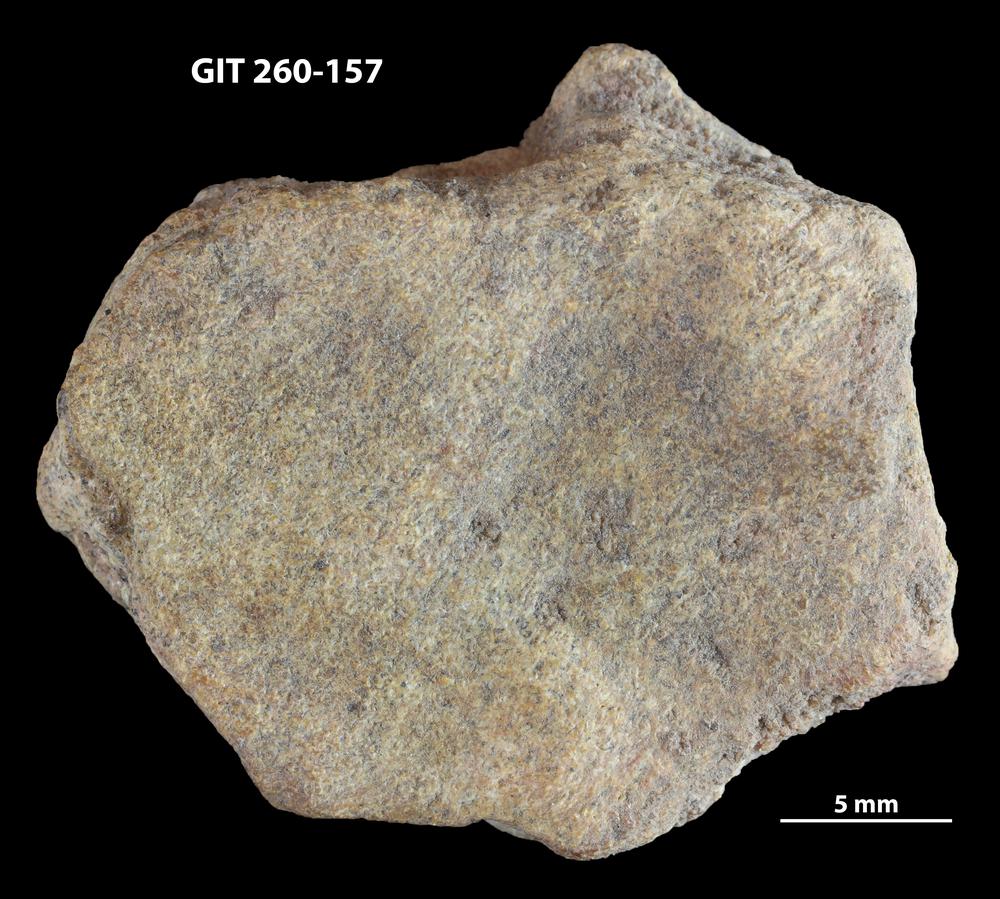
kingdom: Animalia
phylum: Chordata
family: Homostiidae
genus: Homostius
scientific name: Homostius
